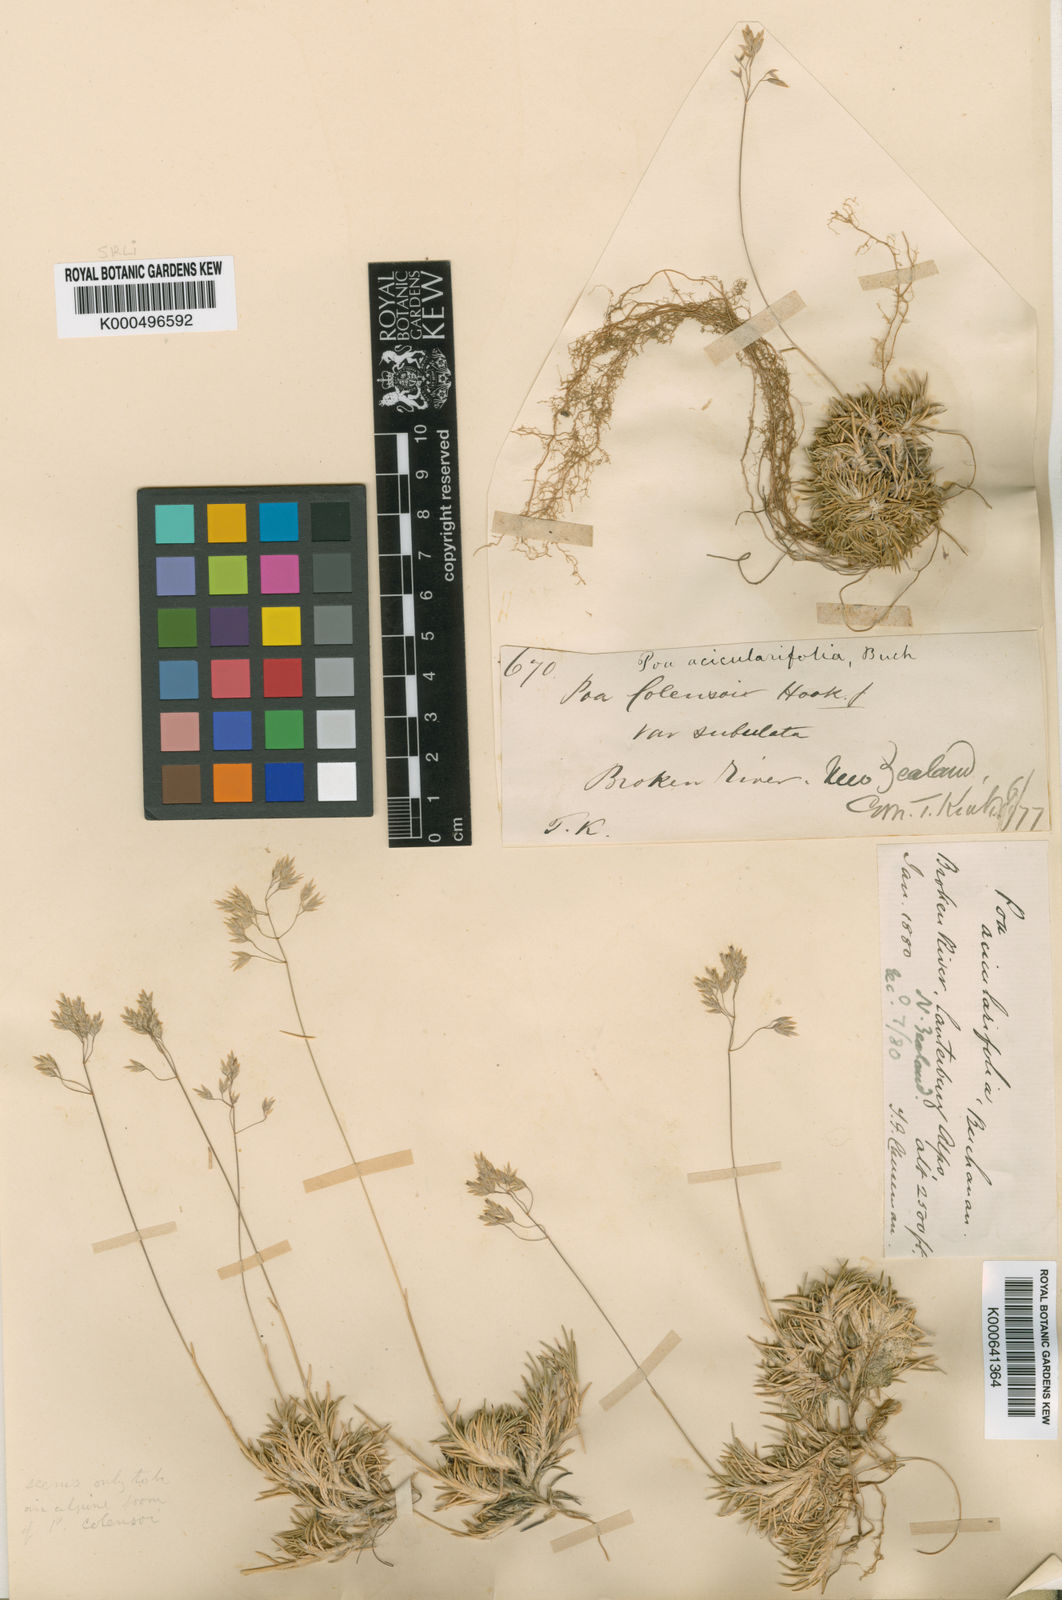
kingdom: Plantae
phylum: Tracheophyta
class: Liliopsida
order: Poales
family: Poaceae
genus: Poa
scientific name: Poa acicularifolia
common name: Limestone cushion poa
